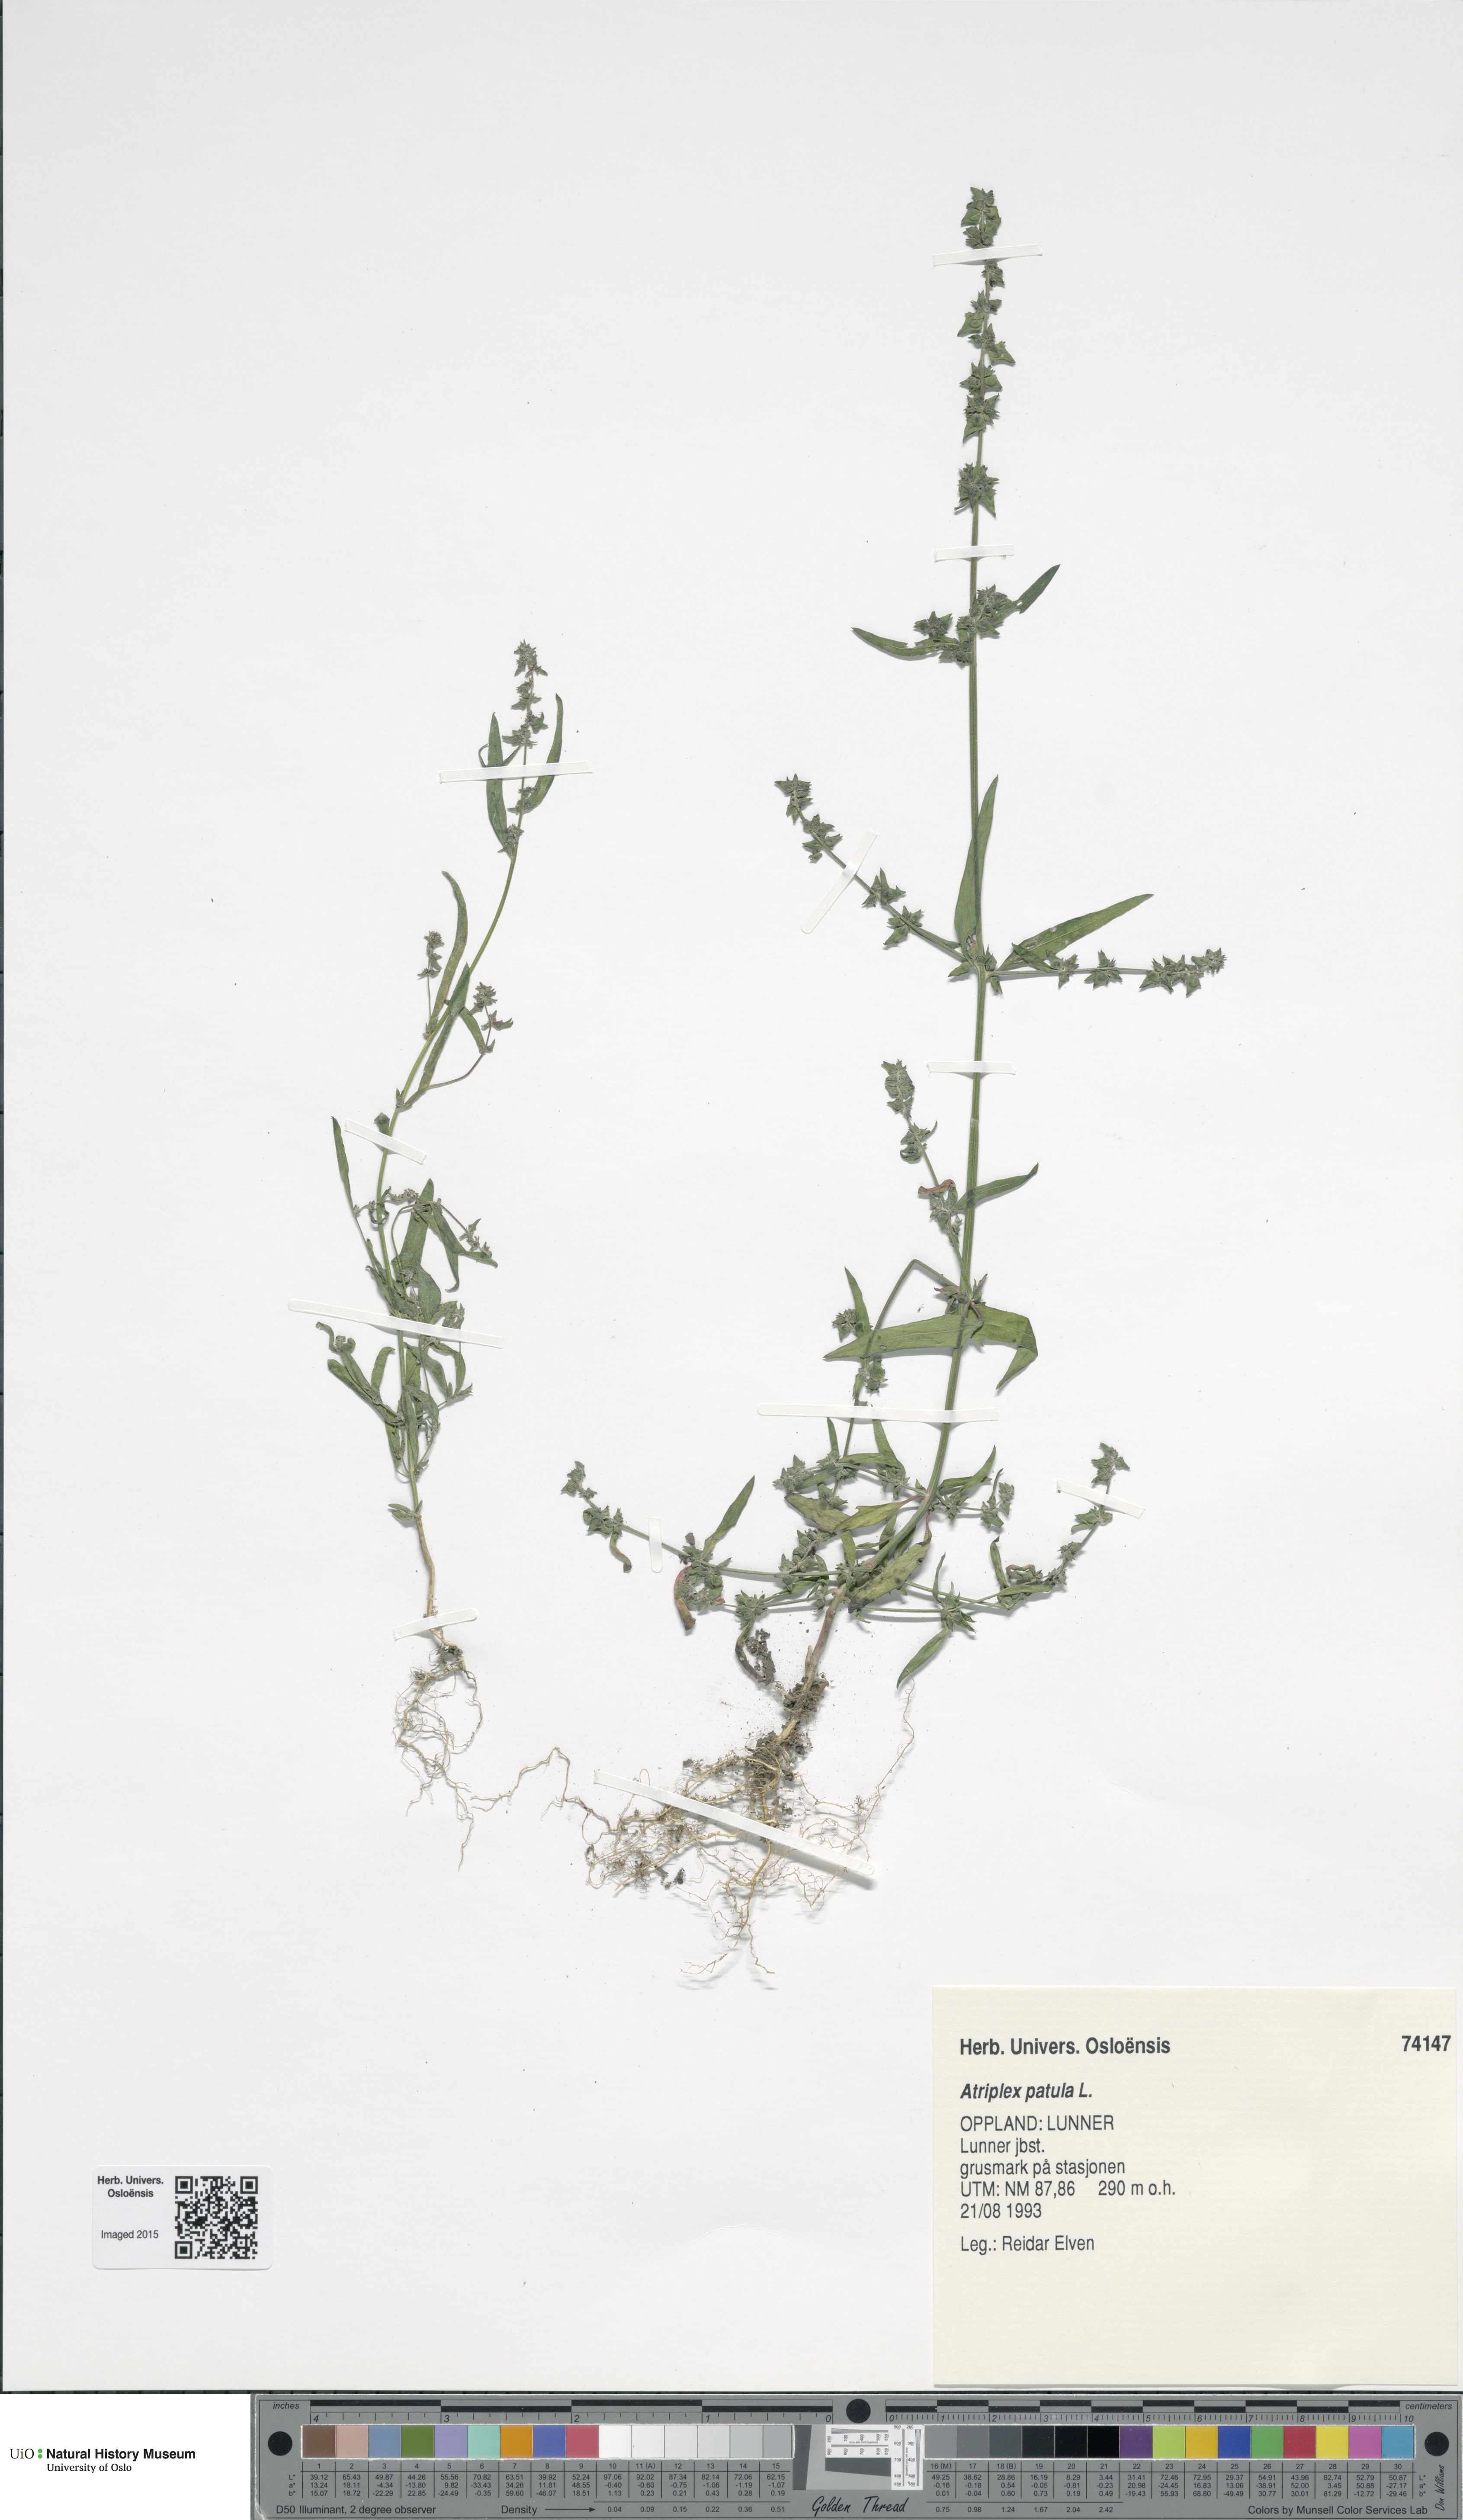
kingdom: Plantae
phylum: Tracheophyta
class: Magnoliopsida
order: Caryophyllales
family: Amaranthaceae
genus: Atriplex
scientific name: Atriplex patula
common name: Common orache
